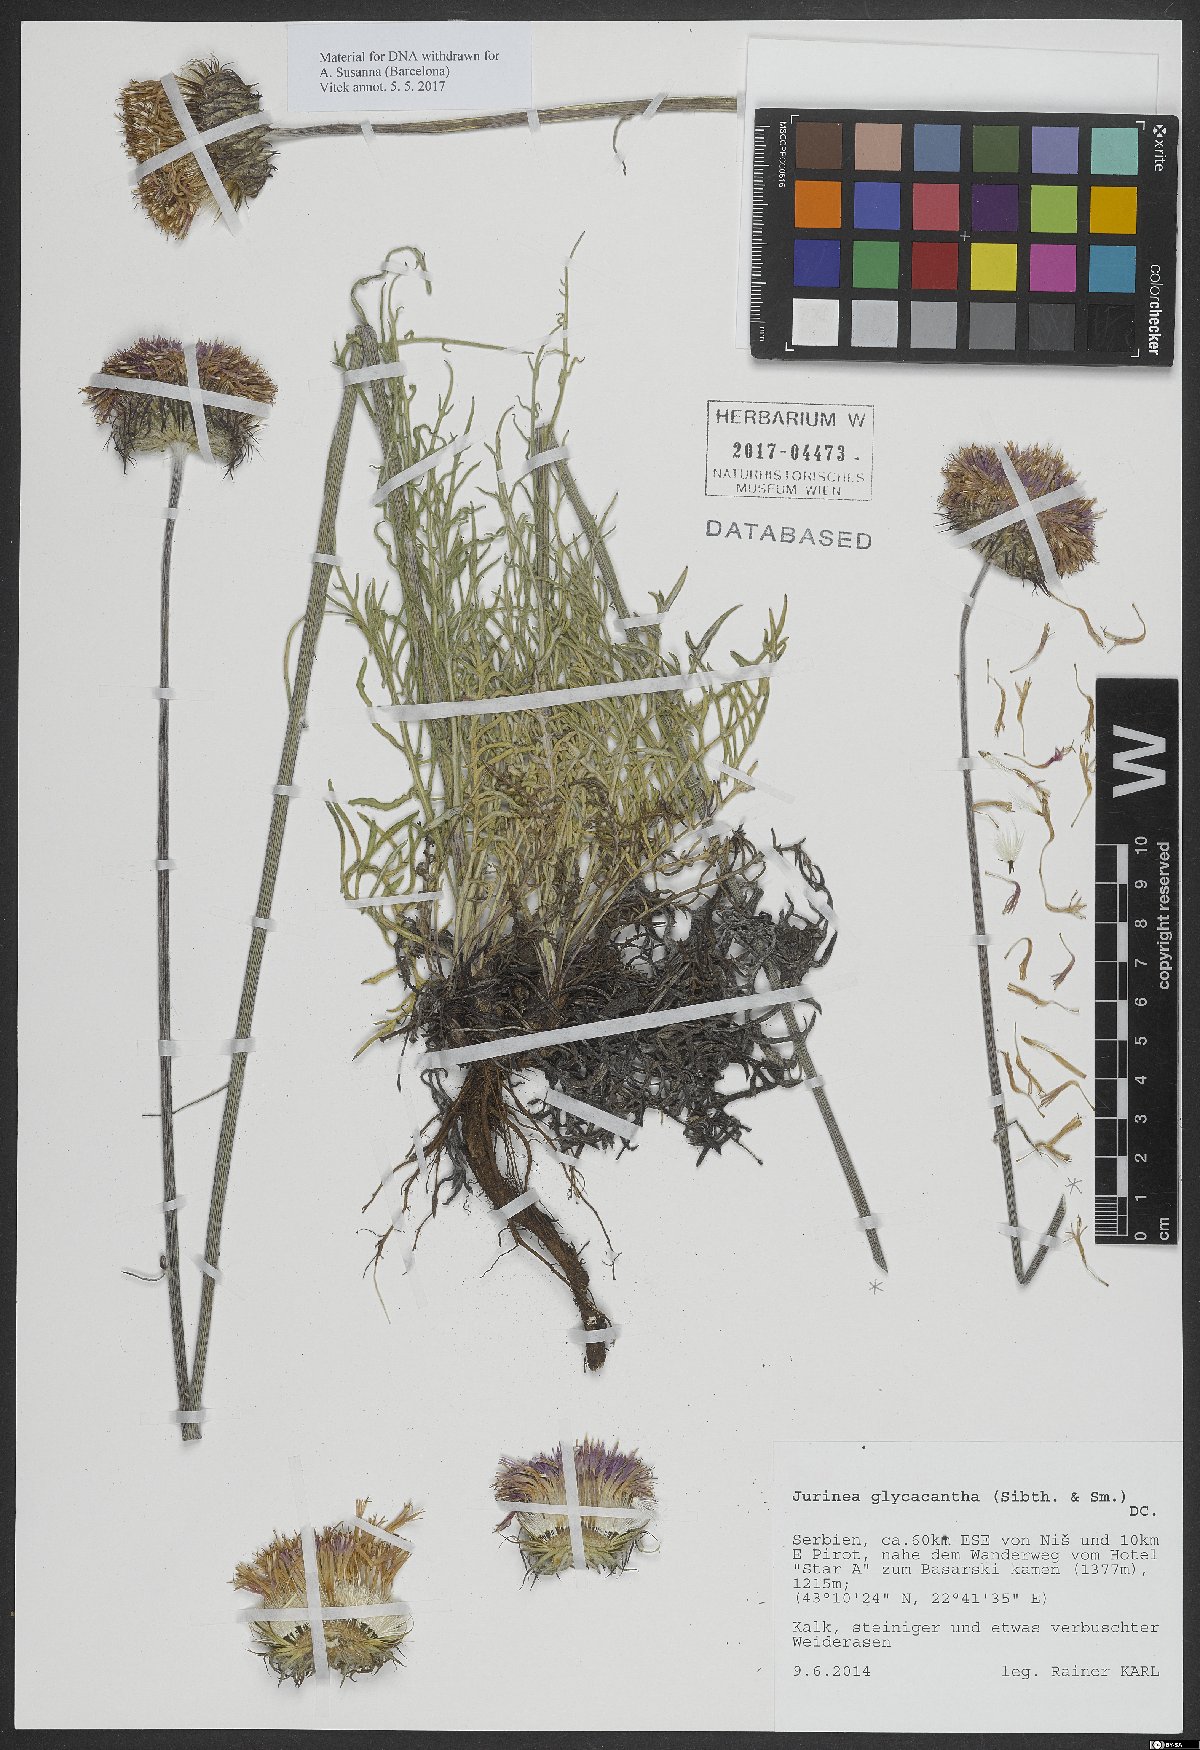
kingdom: Plantae
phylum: Tracheophyta
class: Magnoliopsida
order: Asterales
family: Asteraceae
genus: Jurinea
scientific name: Jurinea glycacantha
